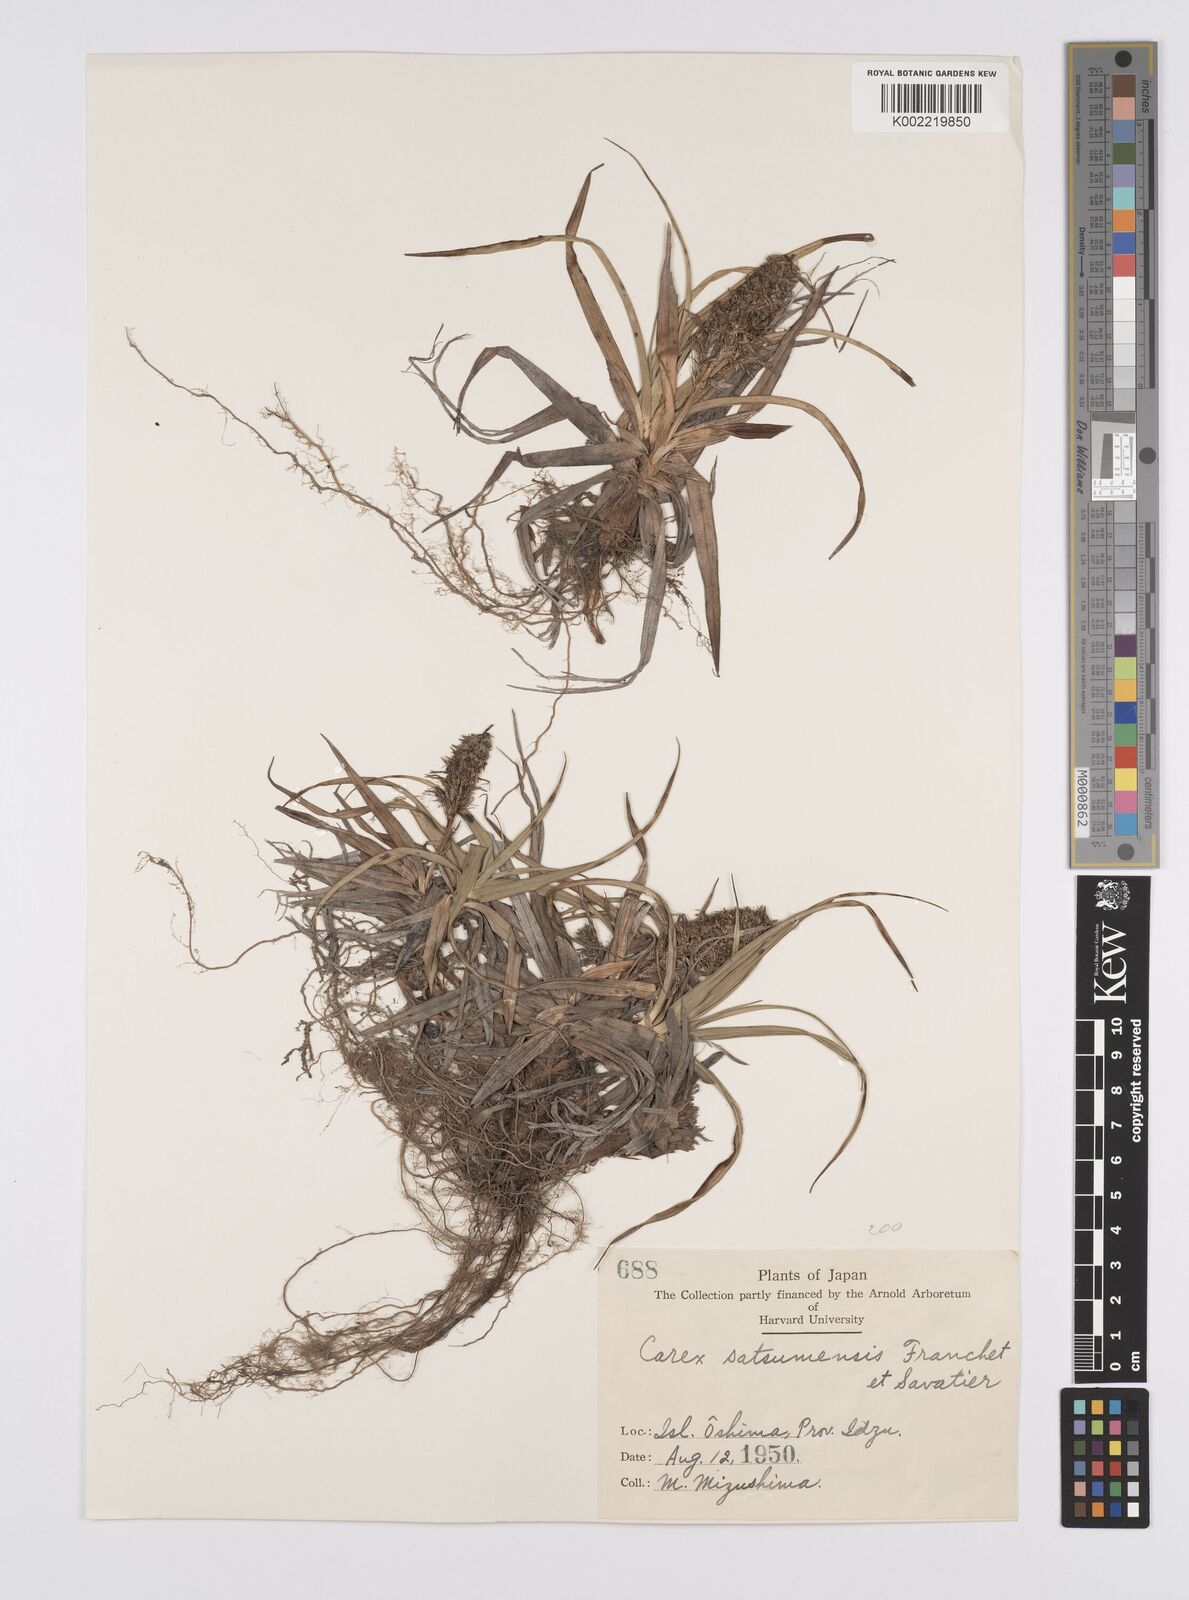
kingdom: Plantae
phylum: Tracheophyta
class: Liliopsida
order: Poales
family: Cyperaceae
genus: Carex
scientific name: Carex satsumensis
